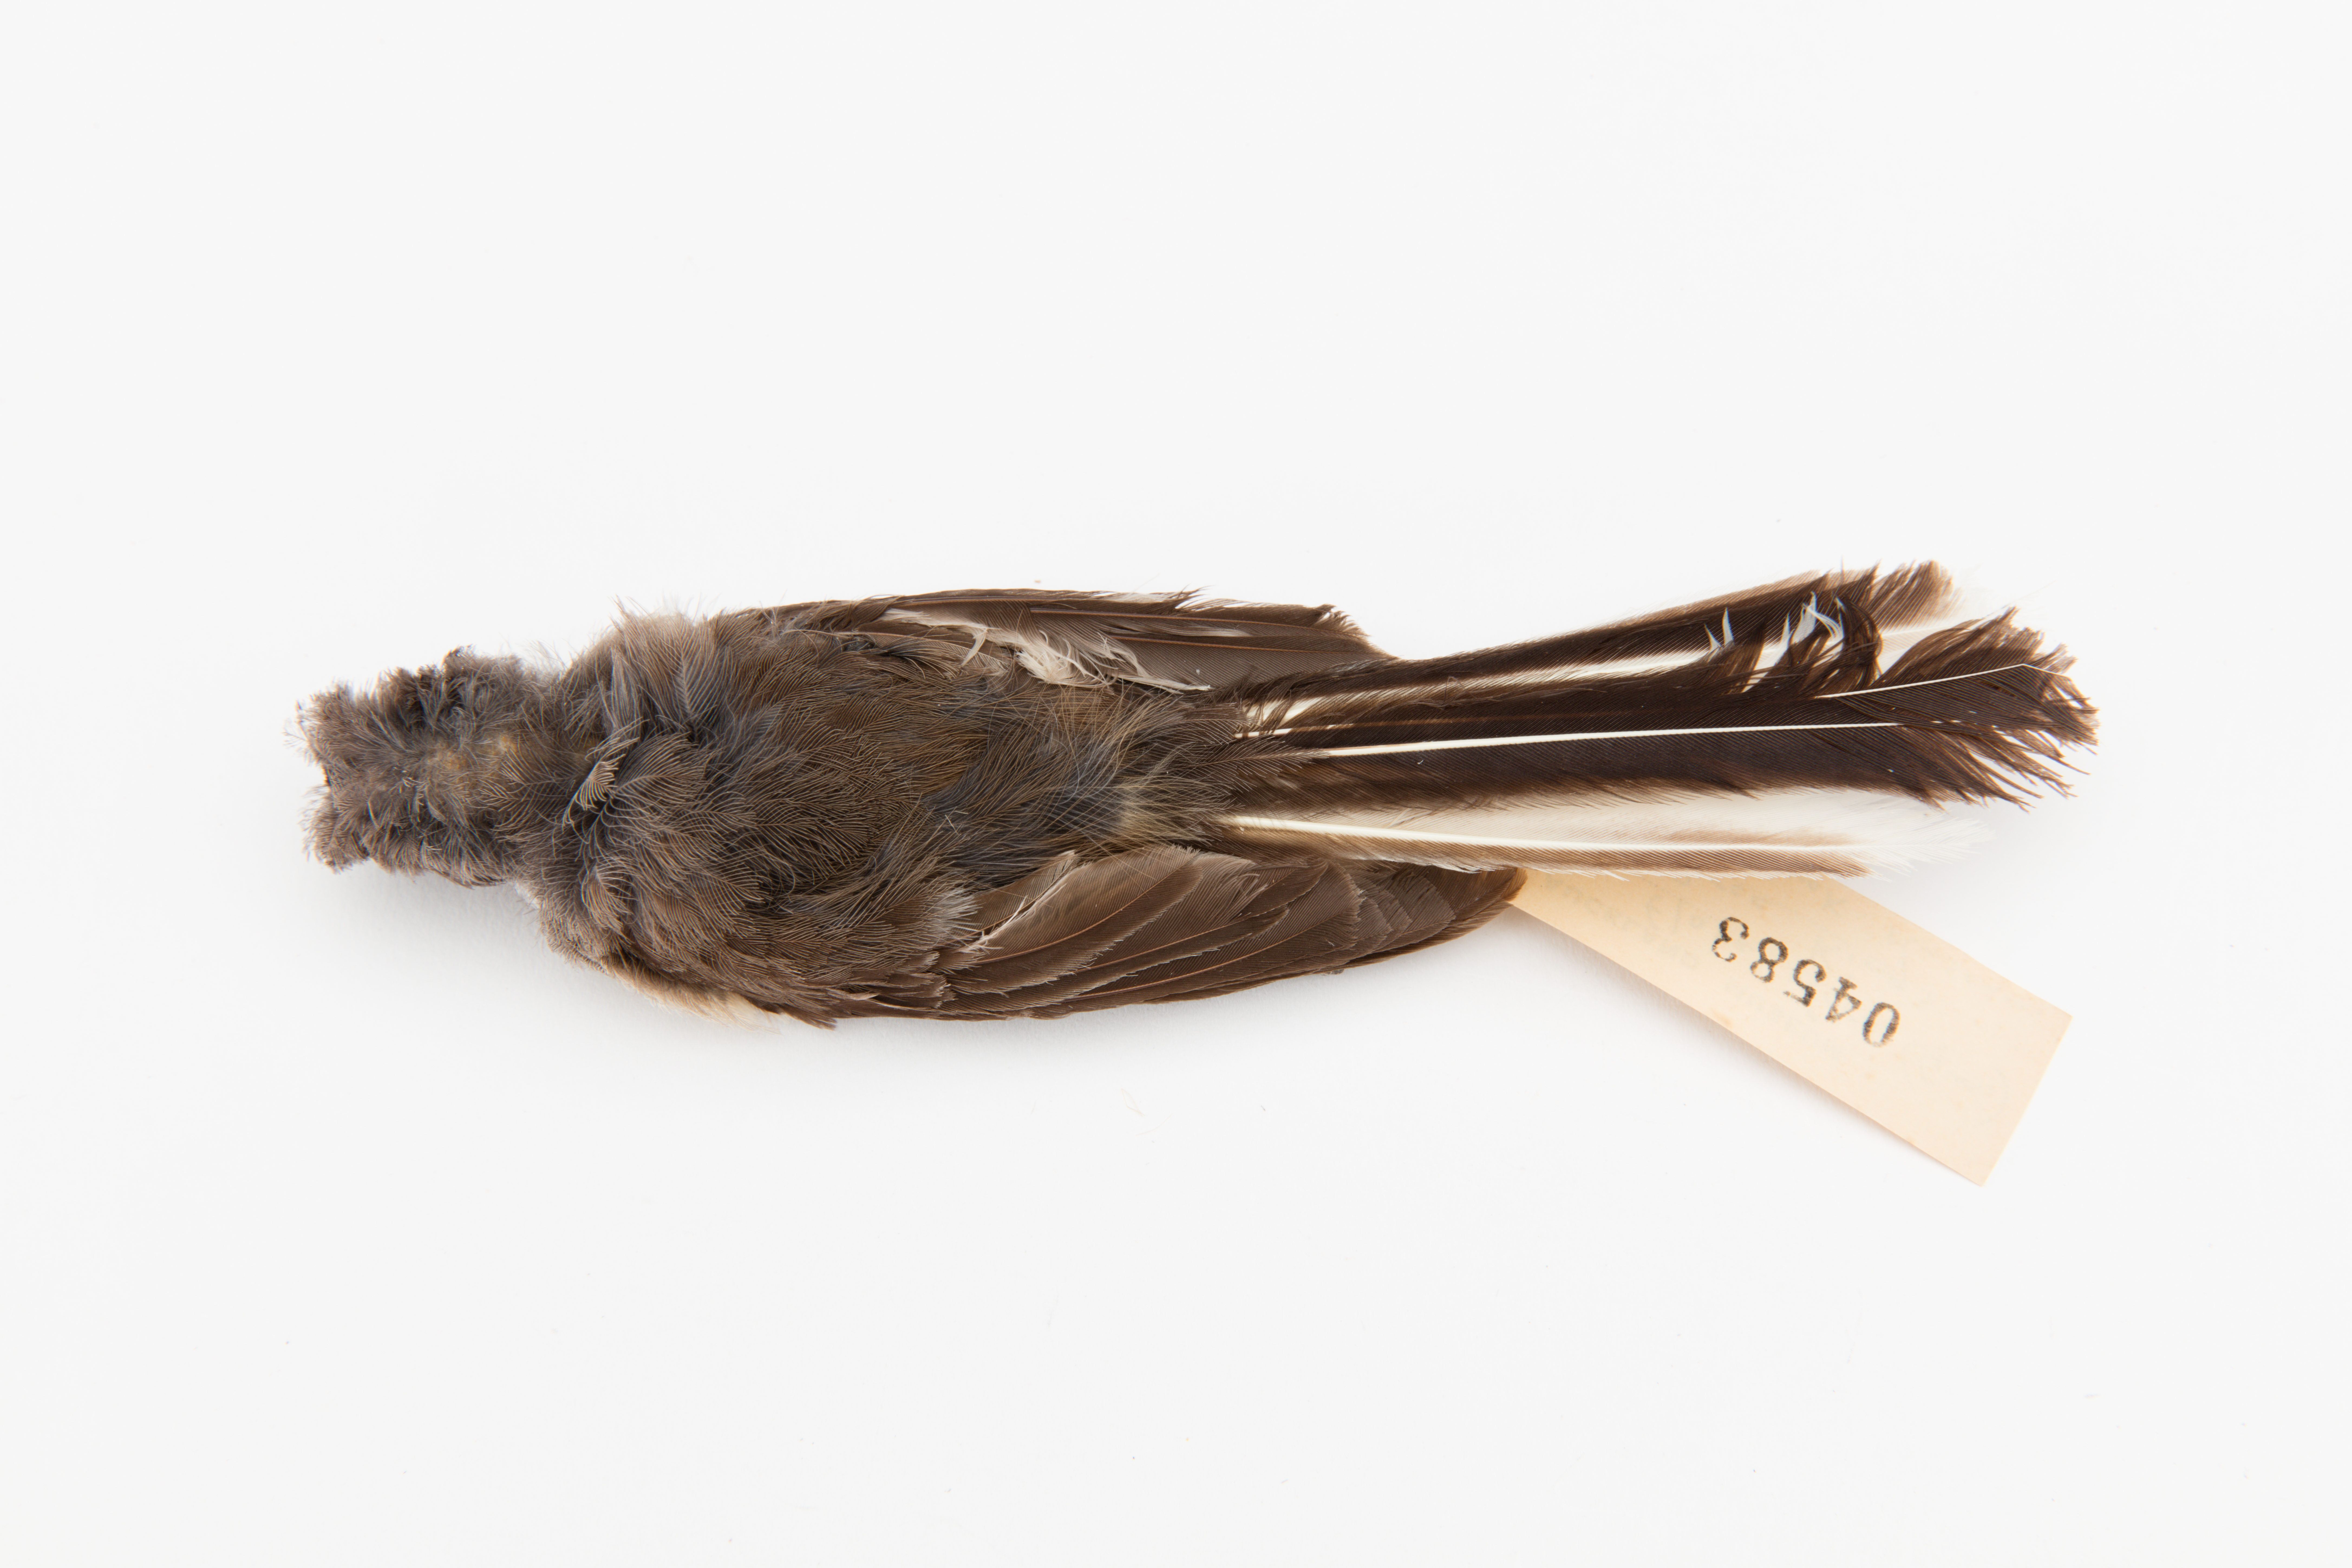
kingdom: Animalia
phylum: Chordata
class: Aves
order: Passeriformes
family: Rhipiduridae
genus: Rhipidura
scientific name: Rhipidura fuliginosa
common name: New zealand fantail
